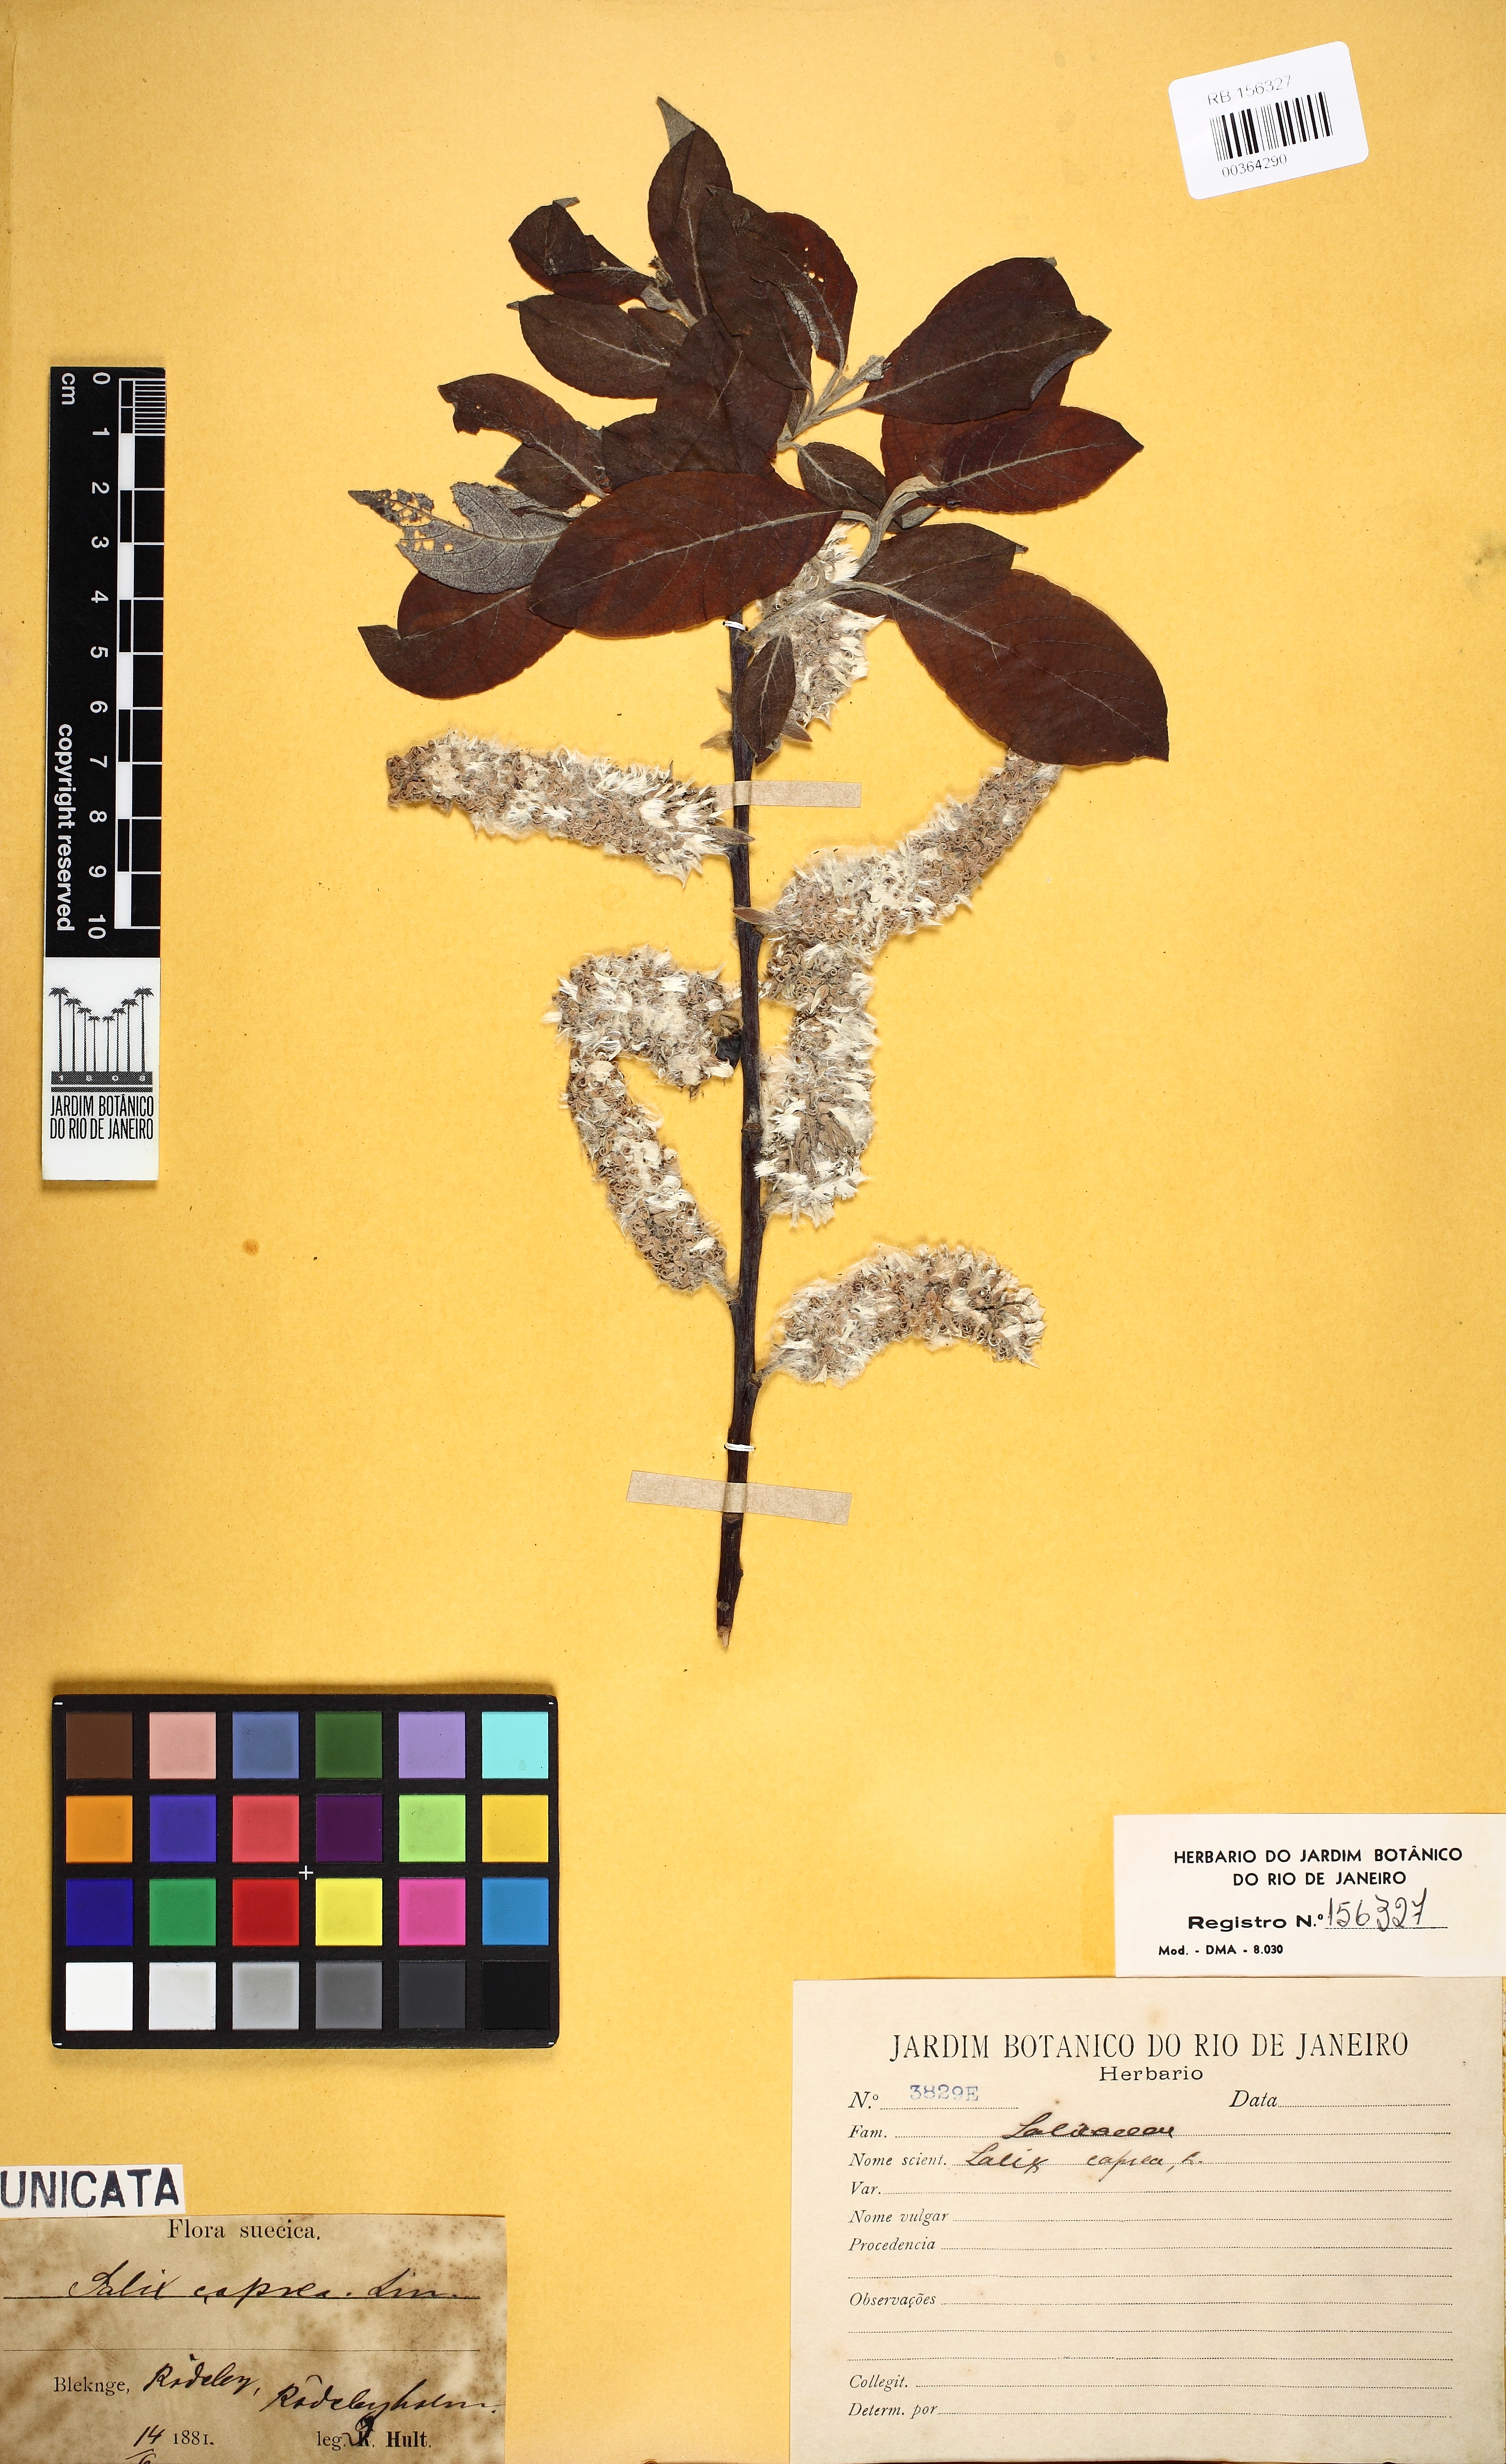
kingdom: Plantae
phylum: Tracheophyta
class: Magnoliopsida
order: Malpighiales
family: Salicaceae
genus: Salix
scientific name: Salix caprea
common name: Goat willow
